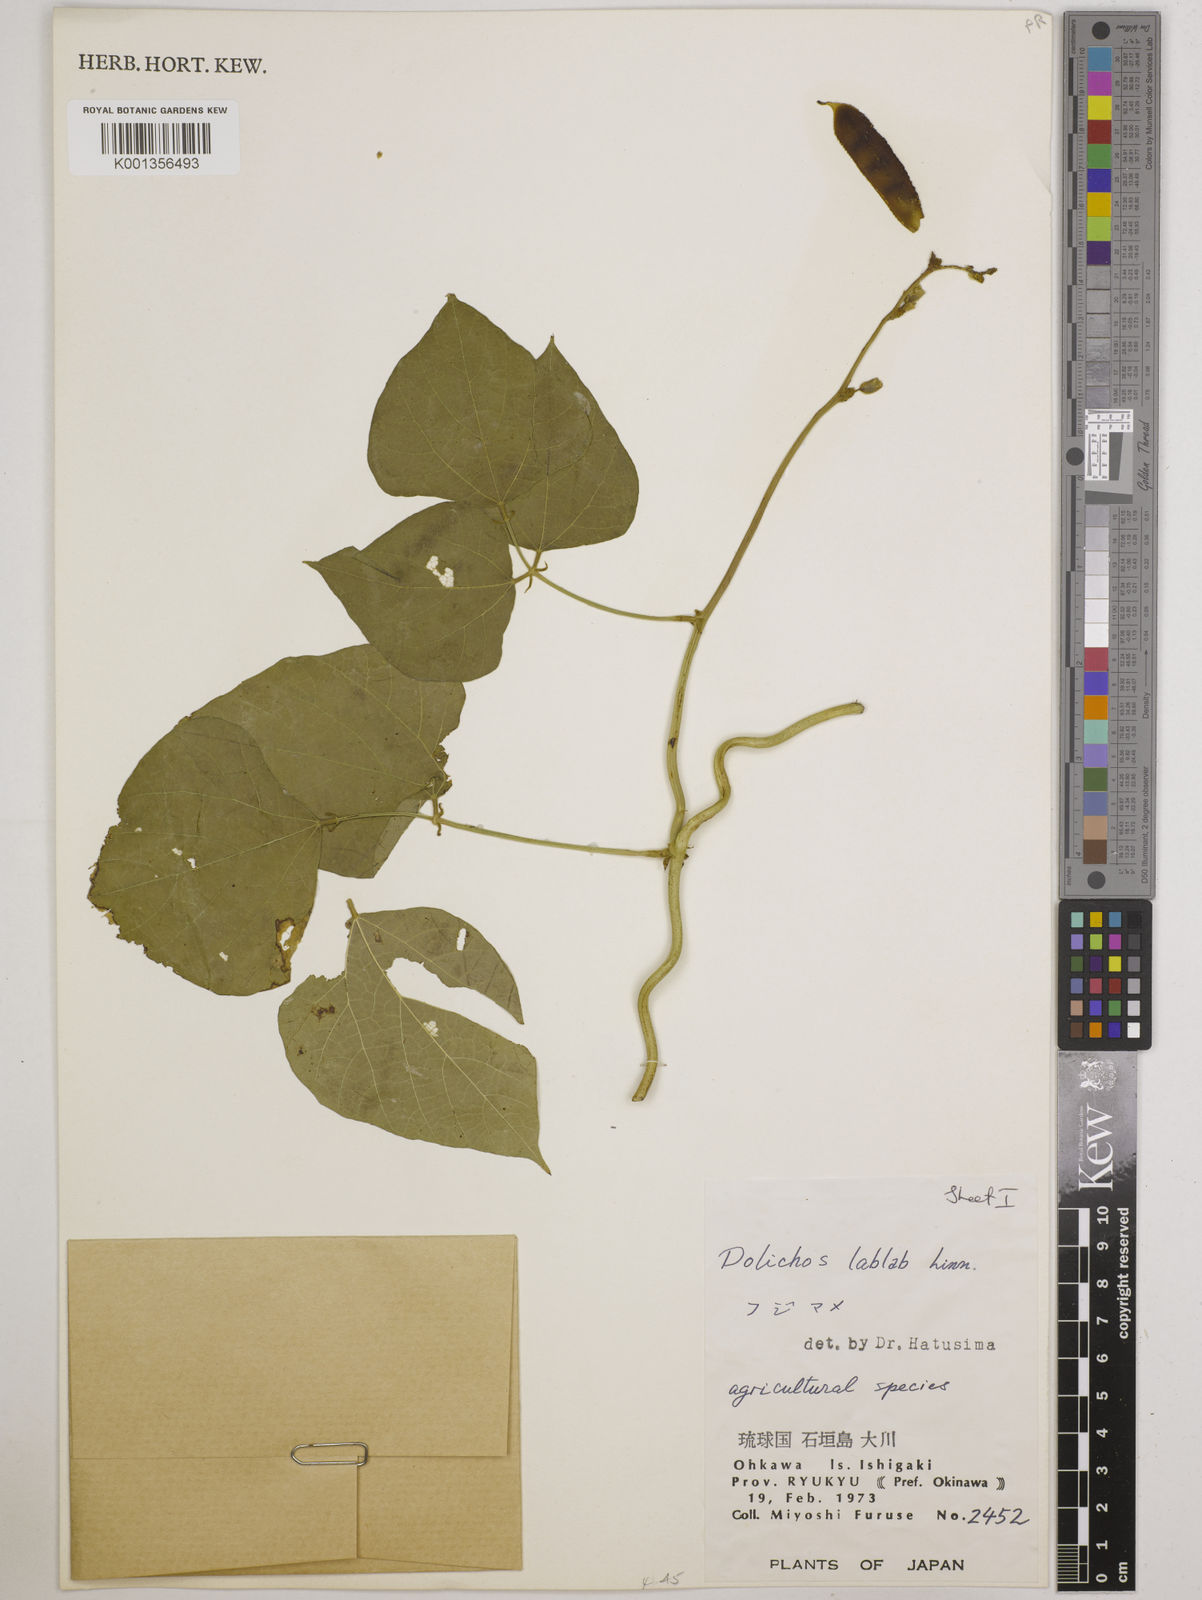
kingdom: Plantae
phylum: Tracheophyta
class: Magnoliopsida
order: Fabales
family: Fabaceae
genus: Lablab
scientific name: Lablab purpureus
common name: Lablab-bean
